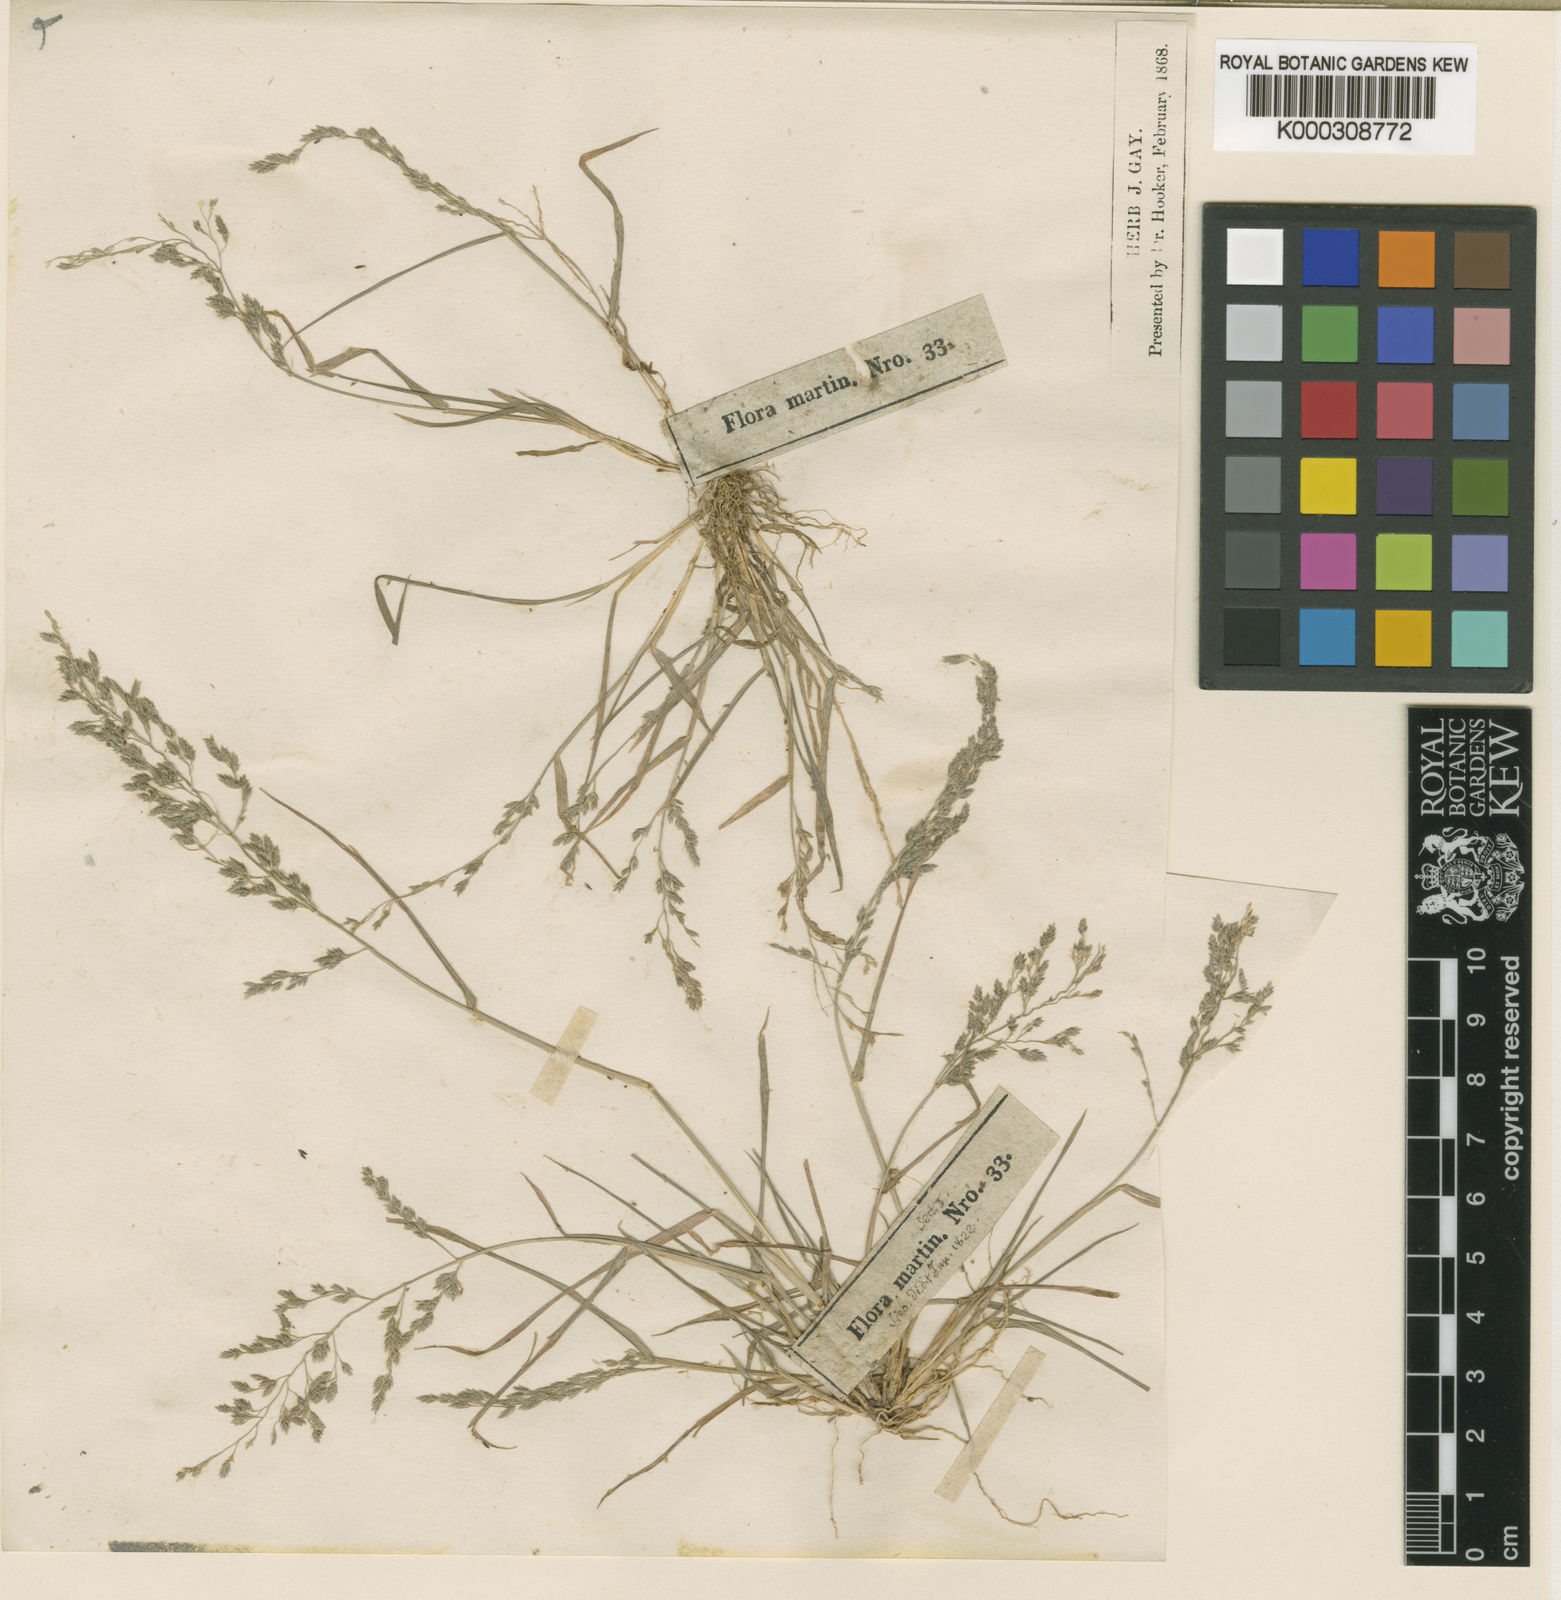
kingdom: Plantae
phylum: Tracheophyta
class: Liliopsida
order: Poales
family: Poaceae
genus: Eragrostis
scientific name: Eragrostis tephrosanthos
